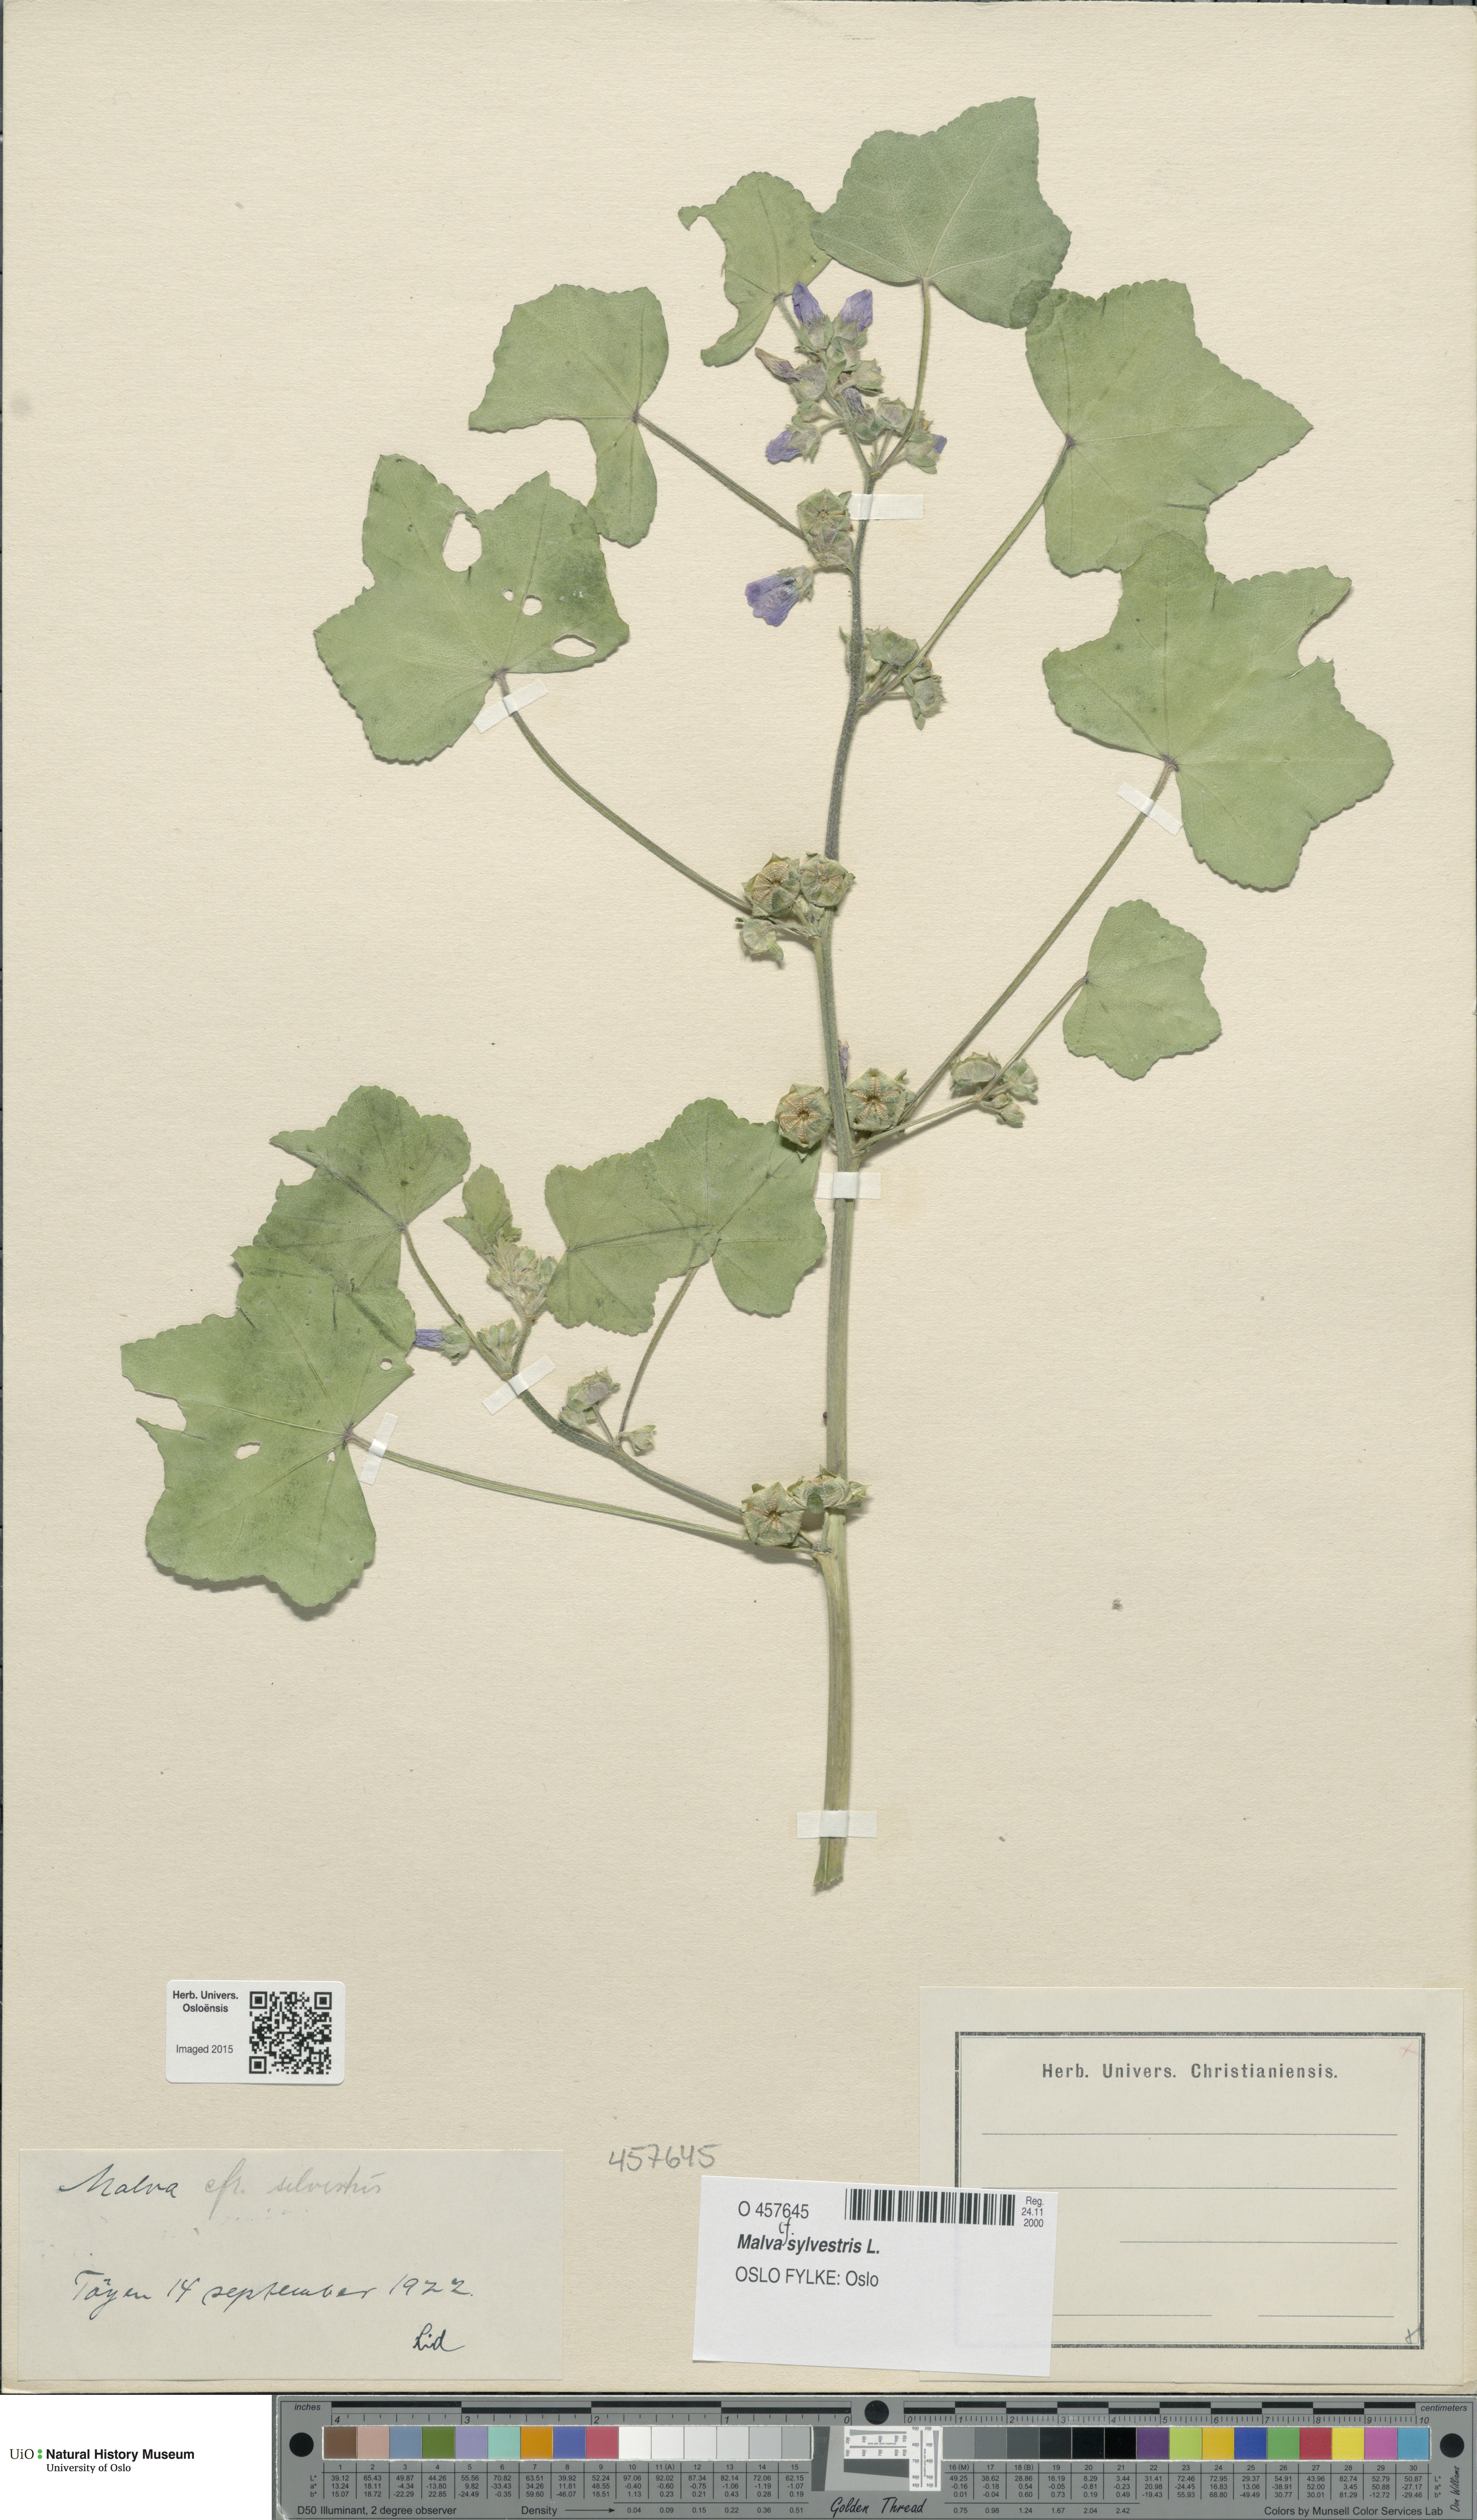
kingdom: Plantae
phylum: Tracheophyta
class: Magnoliopsida
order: Malvales
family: Malvaceae
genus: Malva
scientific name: Malva sylvestris
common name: Common mallow
